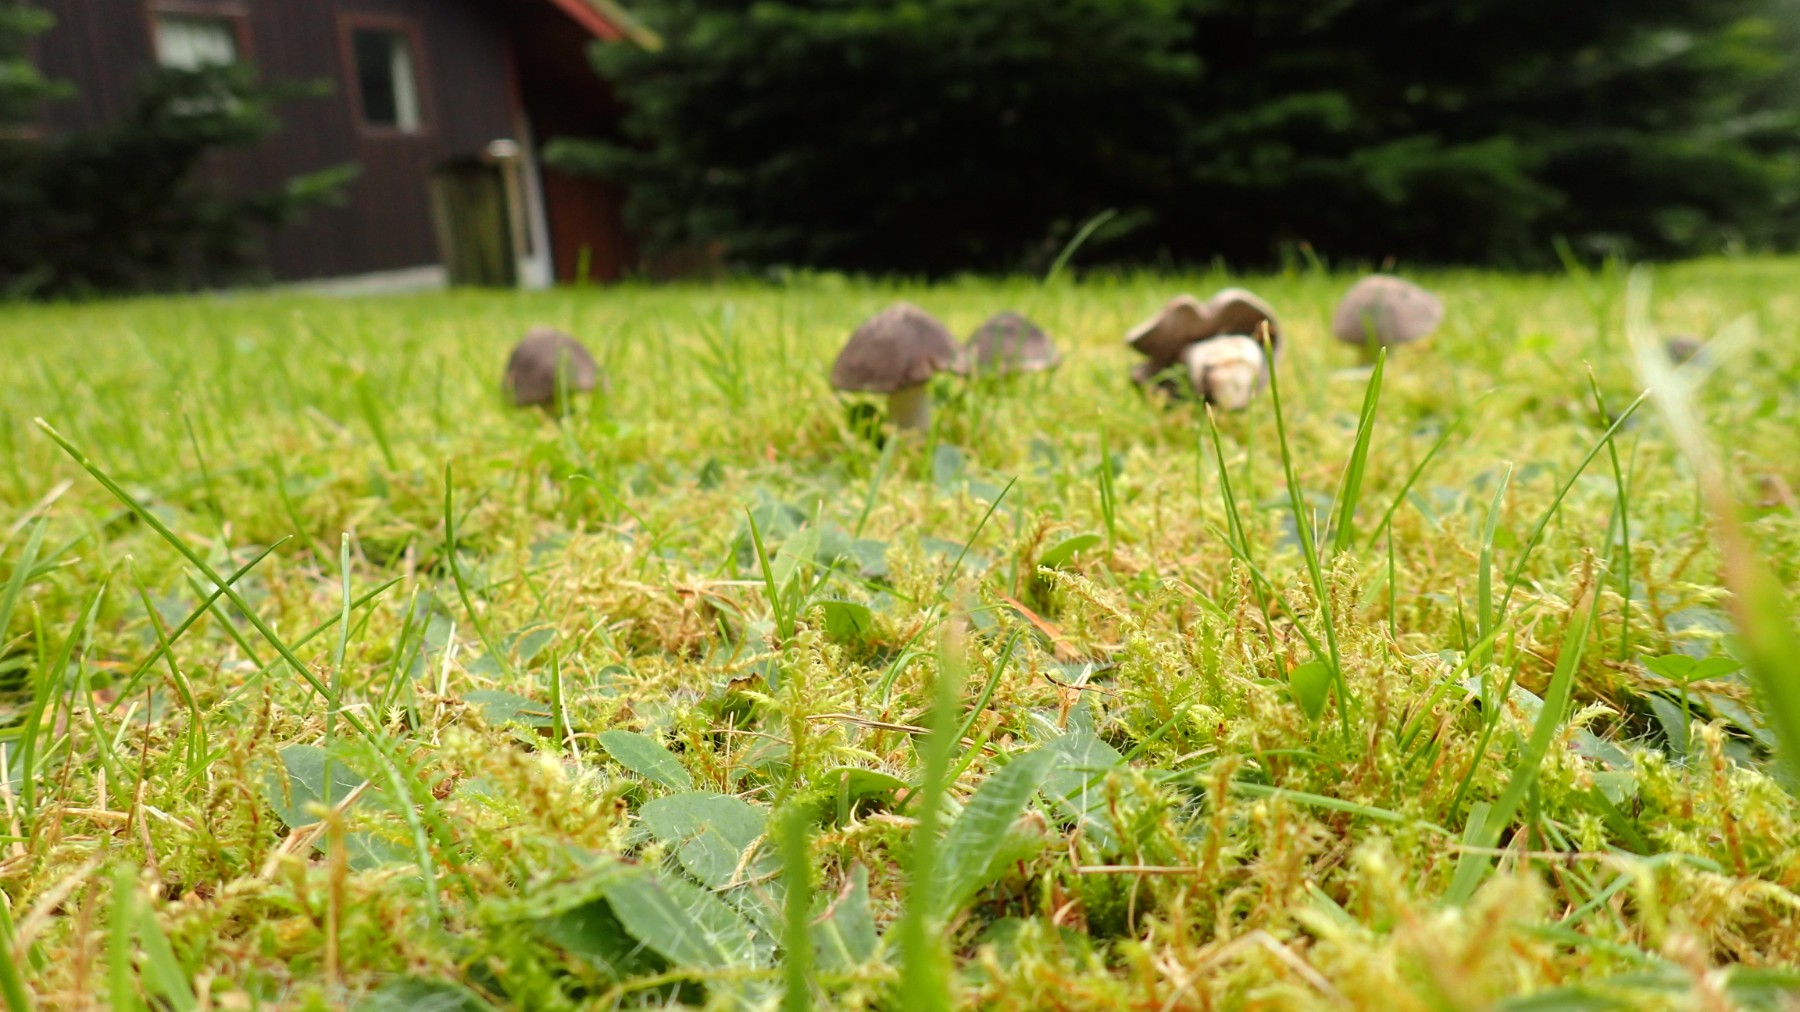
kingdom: Fungi
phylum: Basidiomycota
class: Agaricomycetes
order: Agaricales
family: Tricholomataceae
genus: Tricholoma
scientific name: Tricholoma terreum
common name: jordfarvet ridderhat
